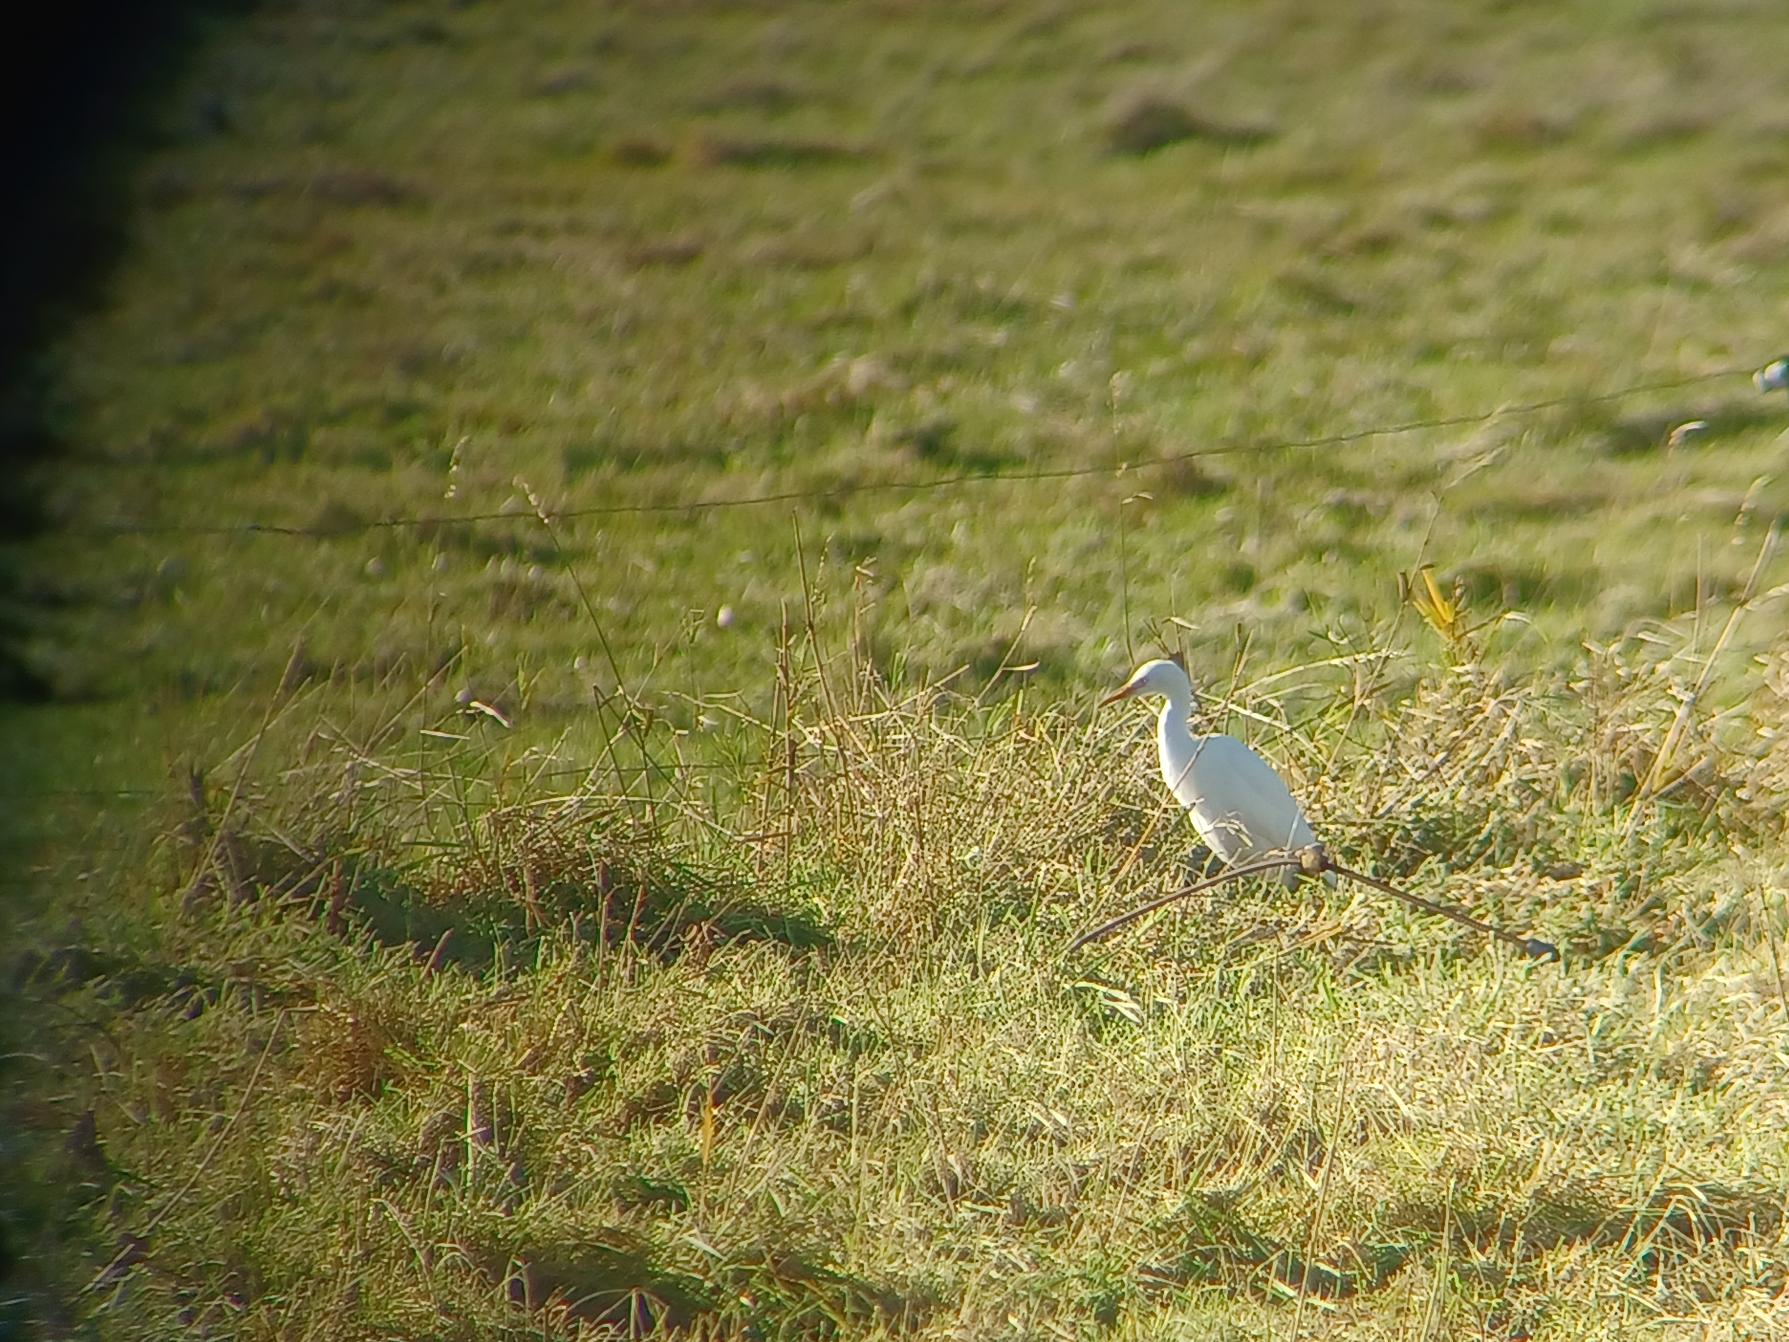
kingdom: Animalia
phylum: Chordata
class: Aves
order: Pelecaniformes
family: Ardeidae
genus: Bubulcus
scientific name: Bubulcus ibis
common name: Kohejre
